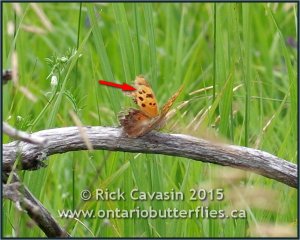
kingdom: Animalia
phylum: Arthropoda
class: Insecta
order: Lepidoptera
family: Nymphalidae
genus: Polygonia
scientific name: Polygonia interrogationis
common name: Question Mark
